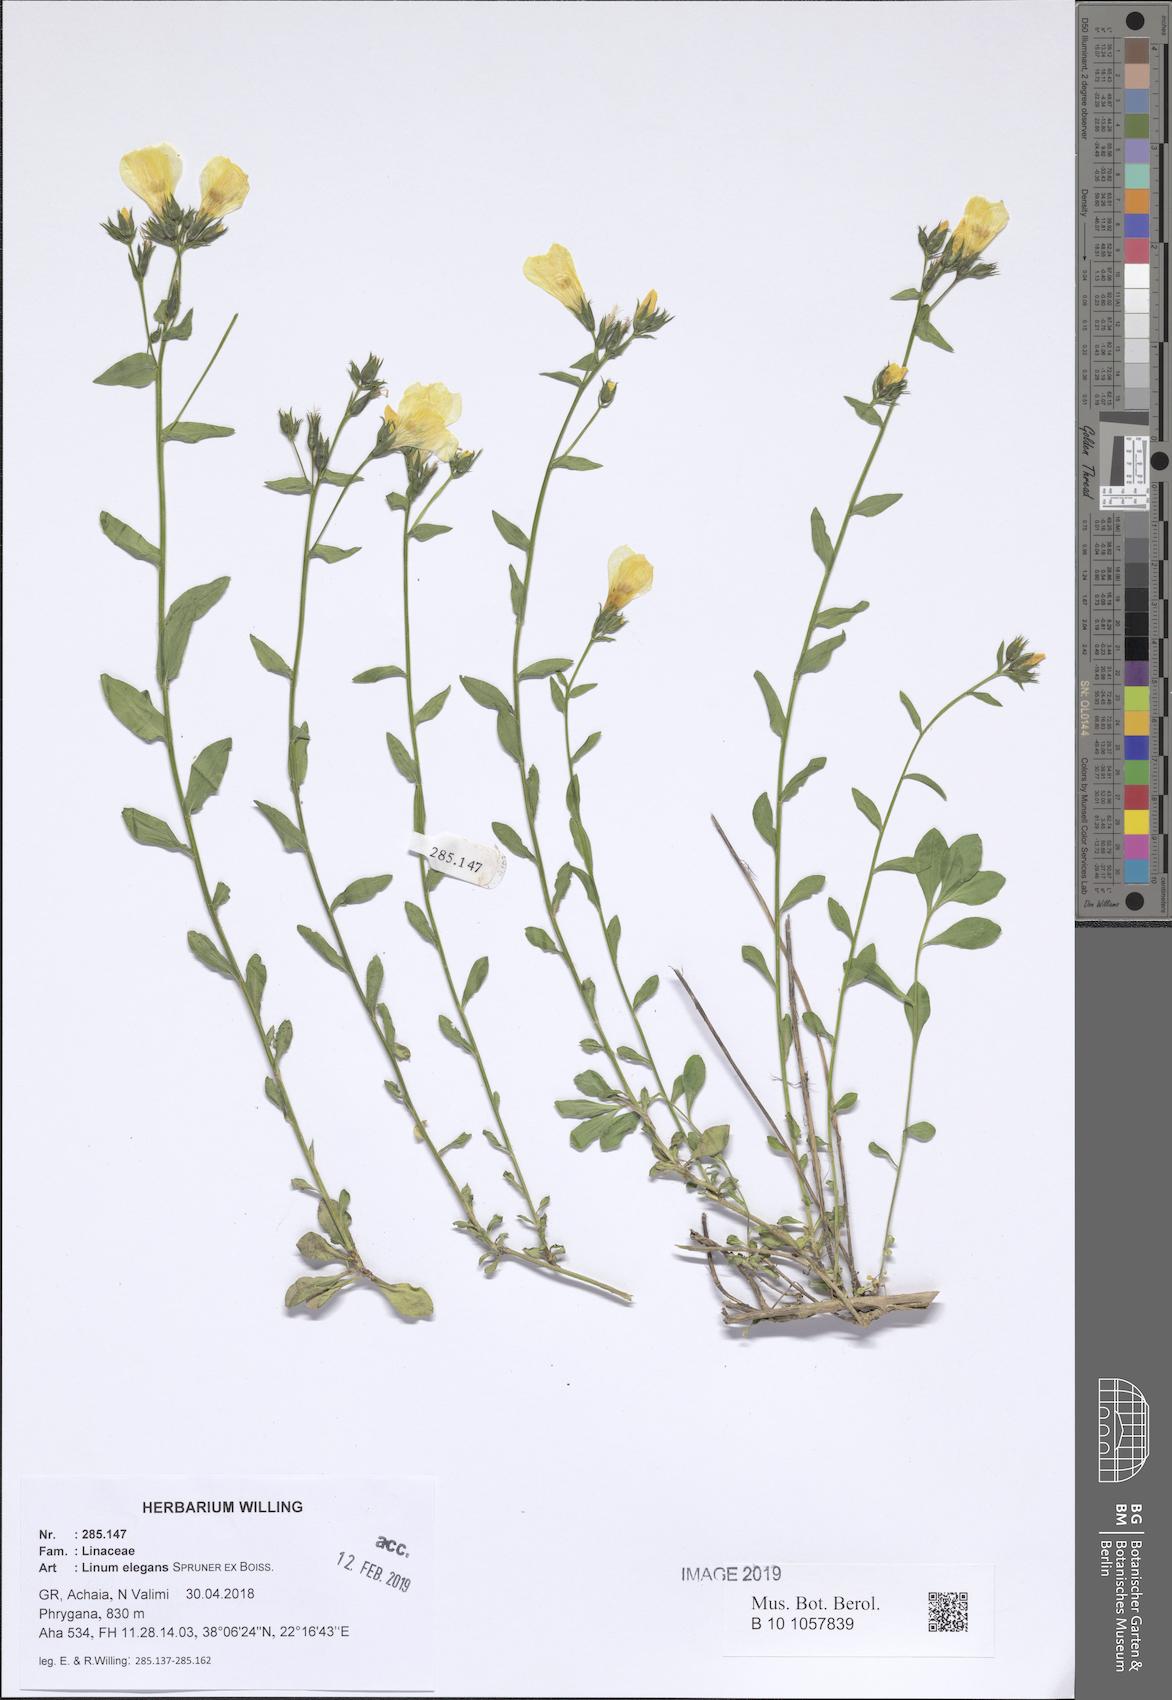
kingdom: Plantae
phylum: Tracheophyta
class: Magnoliopsida
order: Malpighiales
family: Linaceae
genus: Linum
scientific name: Linum elegans
